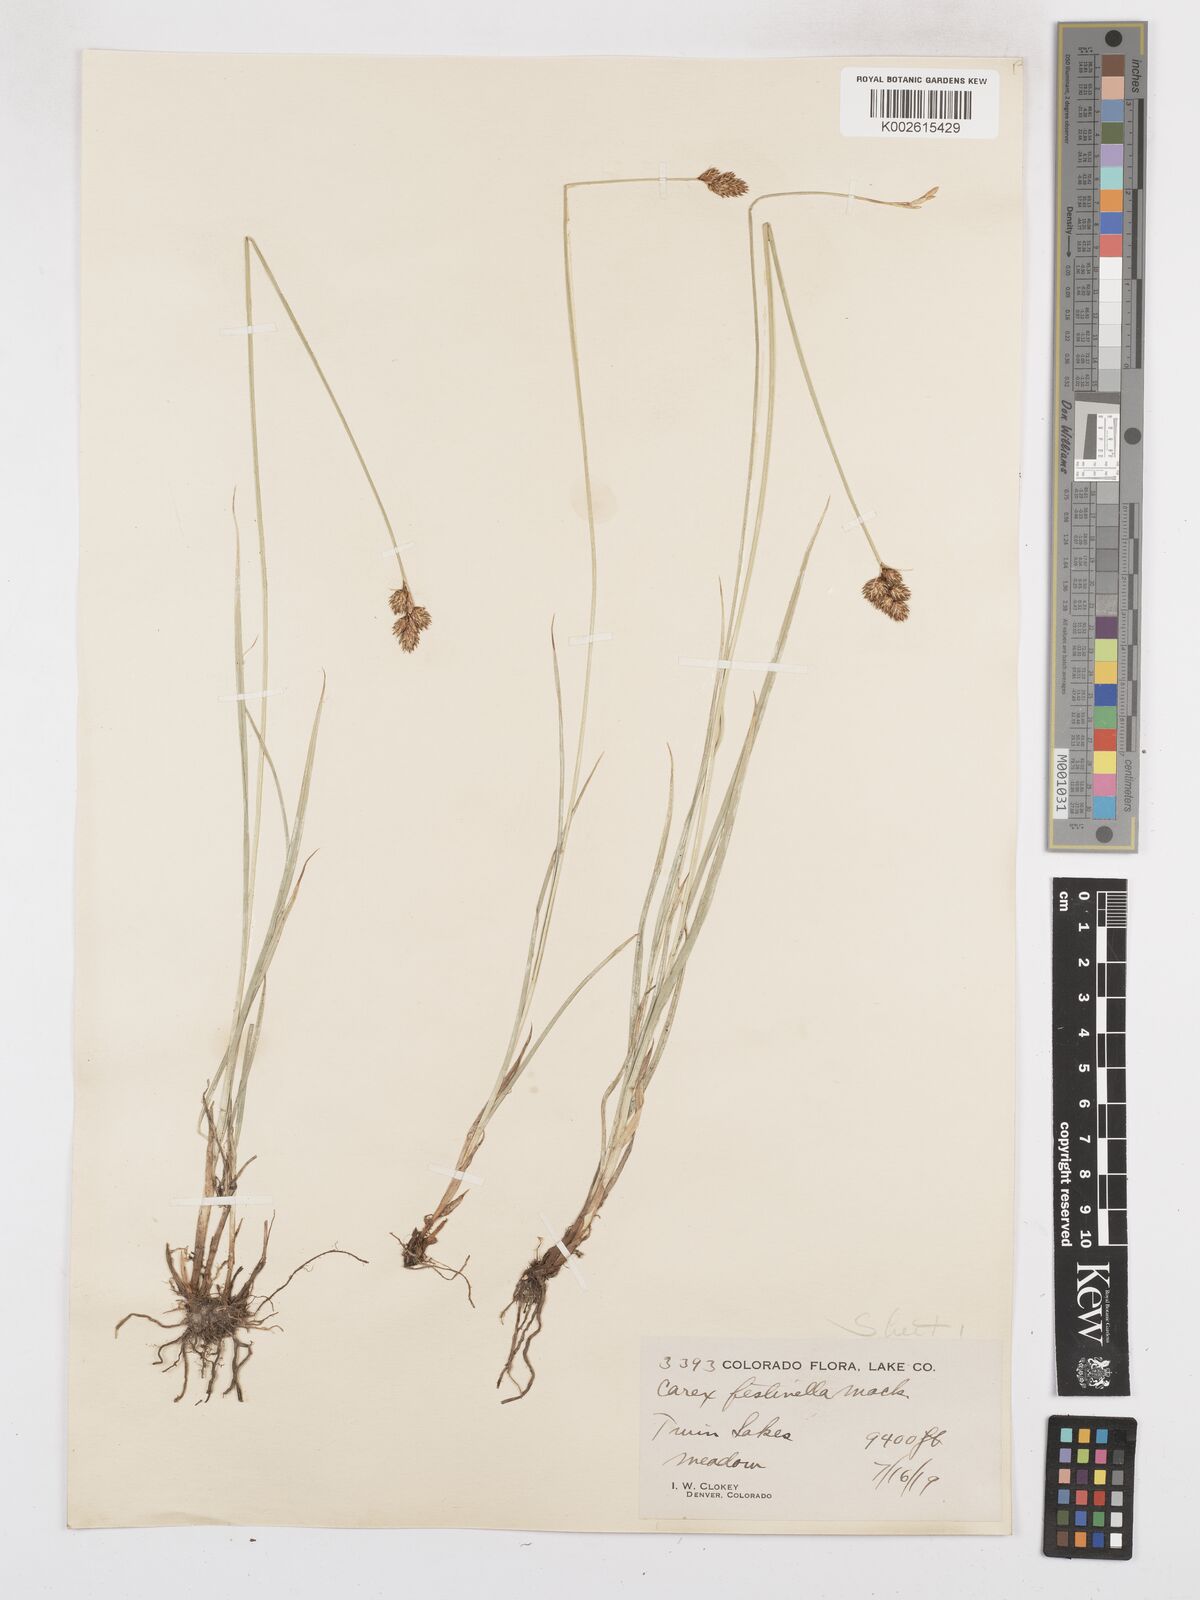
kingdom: Plantae
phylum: Tracheophyta
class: Liliopsida
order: Poales
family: Cyperaceae
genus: Carex
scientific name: Carex microptera
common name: Oval-headed sedge
